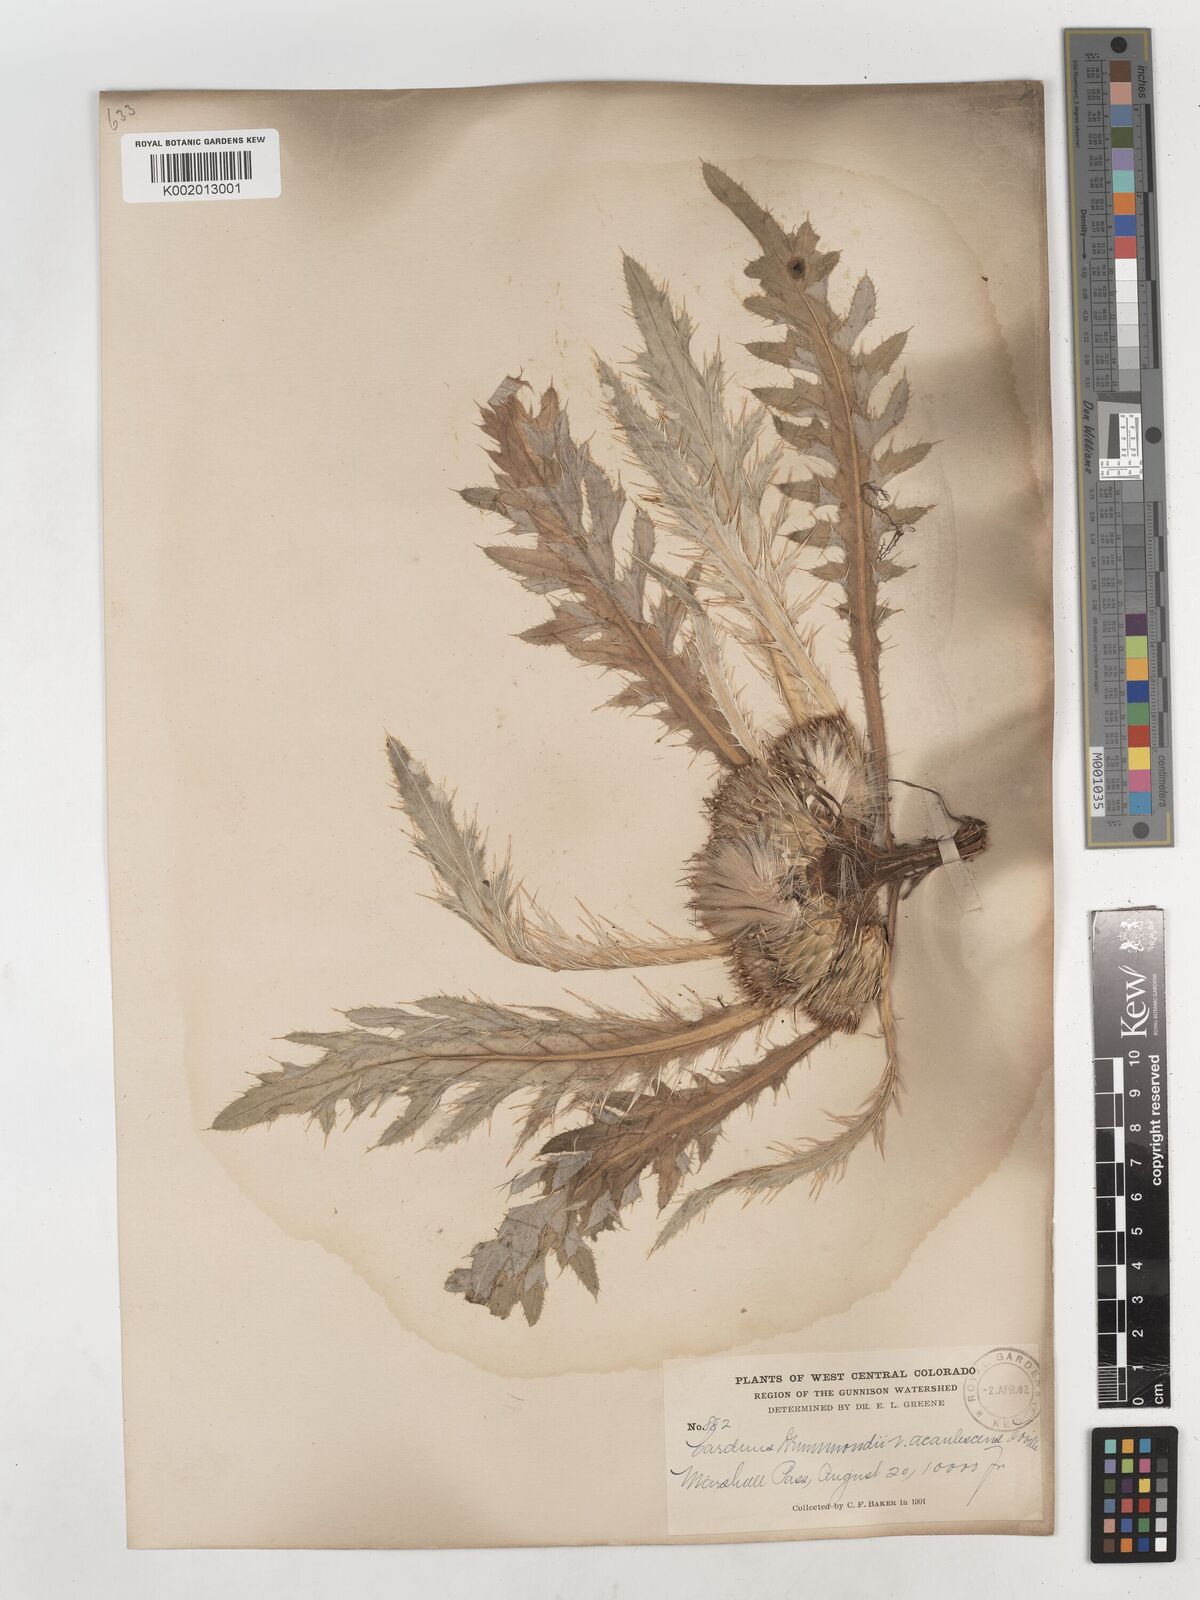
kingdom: Plantae
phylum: Tracheophyta
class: Magnoliopsida
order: Asterales
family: Asteraceae
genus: Cirsium
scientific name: Cirsium drummondii
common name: Drummond's thistle
